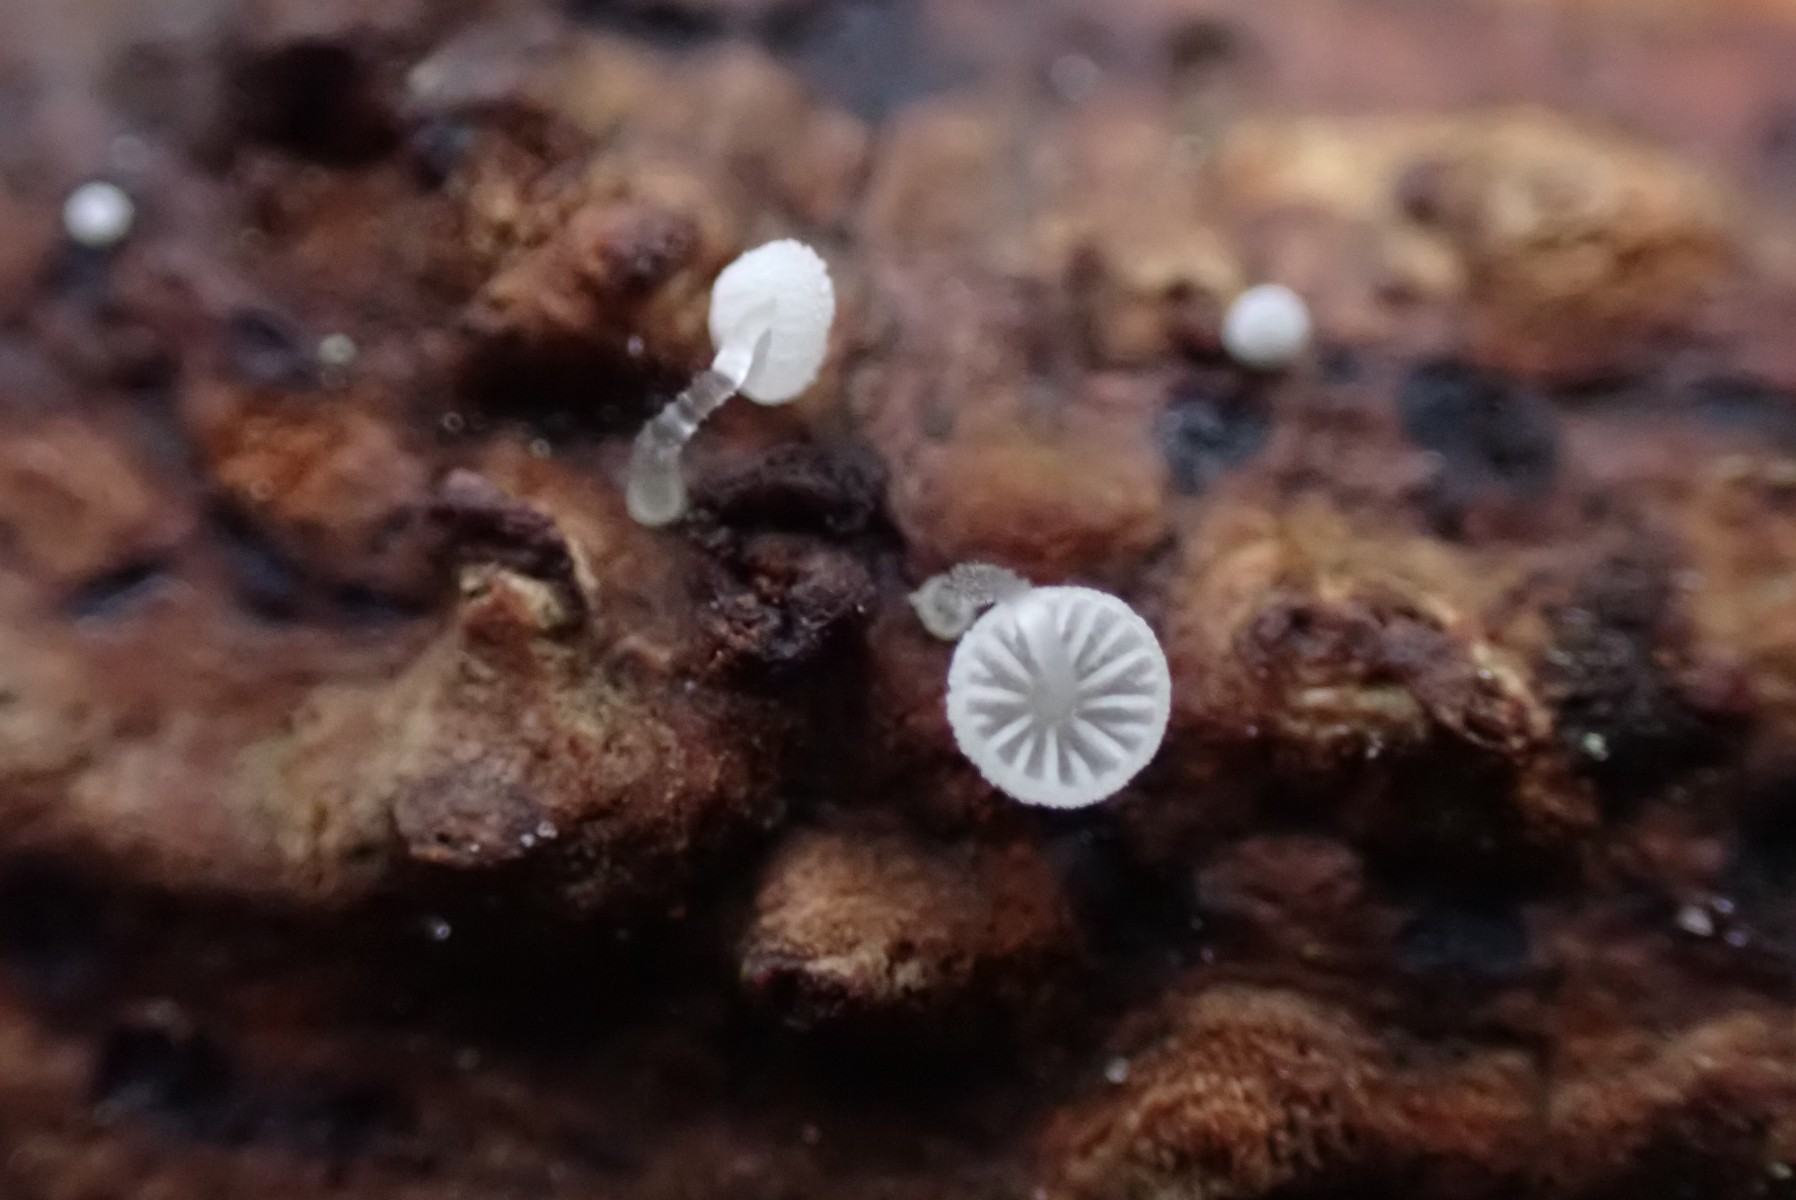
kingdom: Fungi
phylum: Basidiomycota
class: Agaricomycetes
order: Agaricales
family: Mycenaceae
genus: Mycena
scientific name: Mycena tenerrima
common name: pudret huesvamp
